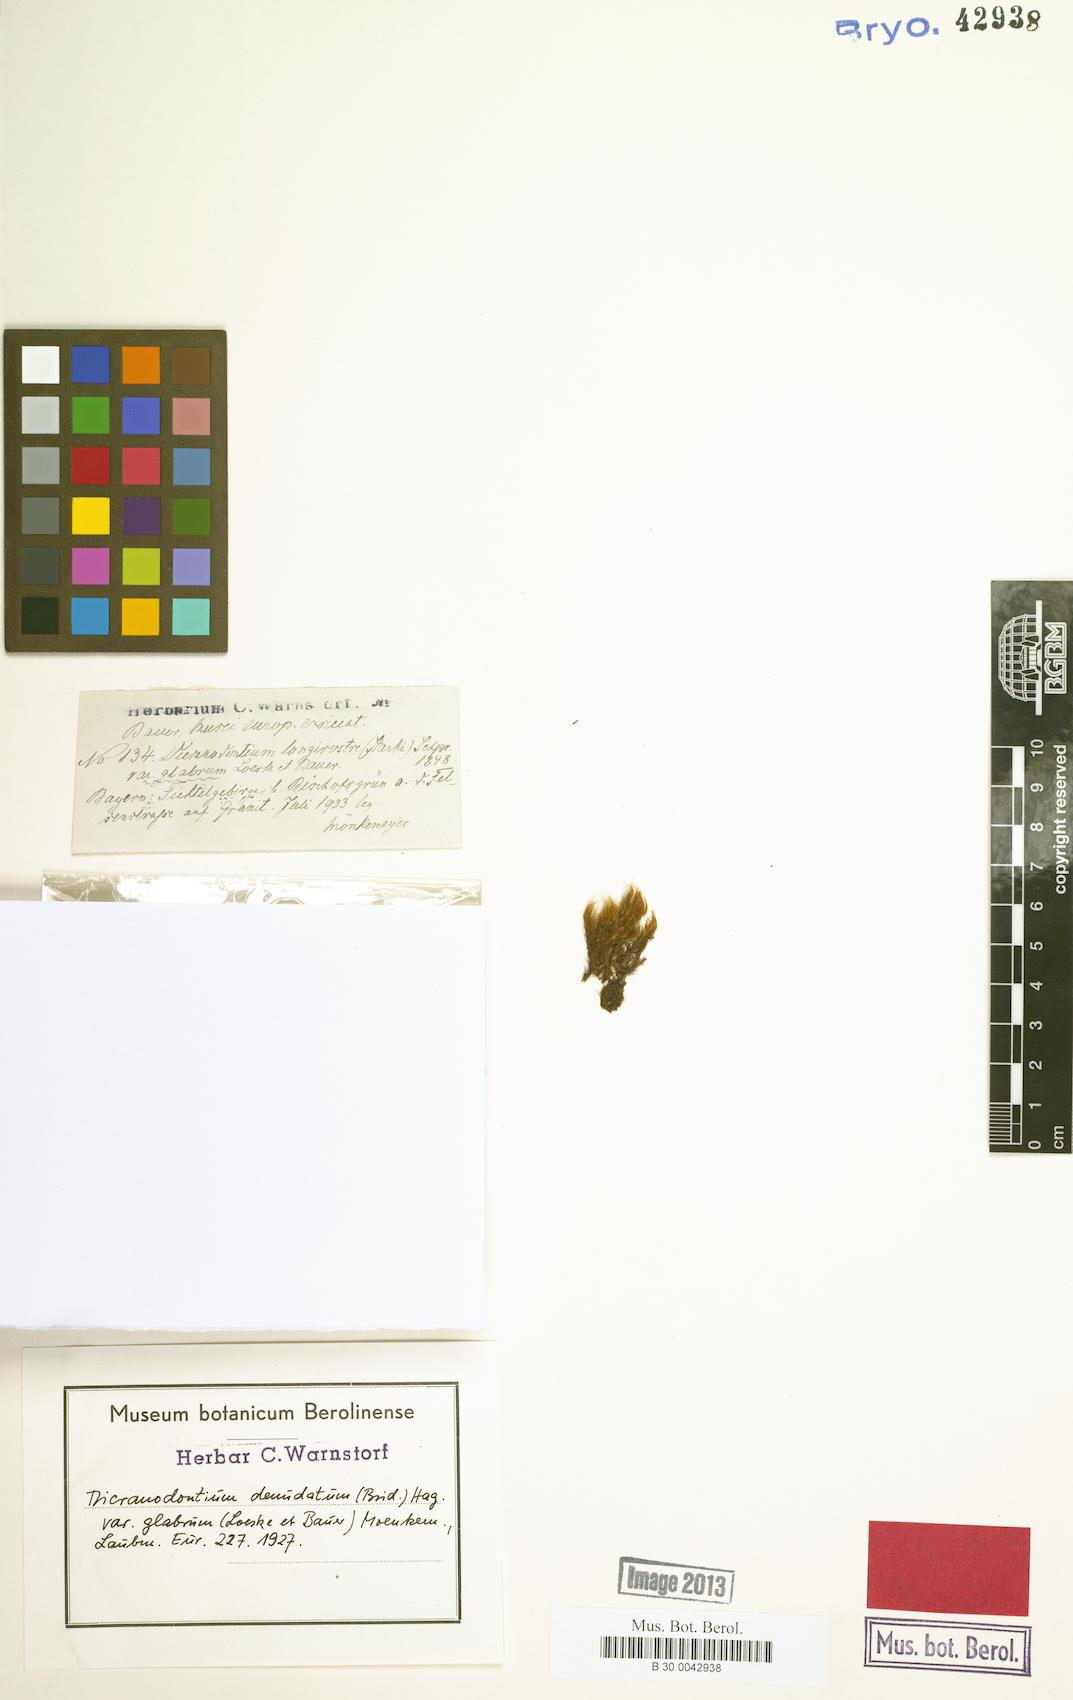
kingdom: Plantae
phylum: Bryophyta
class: Bryopsida
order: Dicranales
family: Leucobryaceae
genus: Dicranodontium
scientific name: Dicranodontium denudatum
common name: Beaked bow moss
